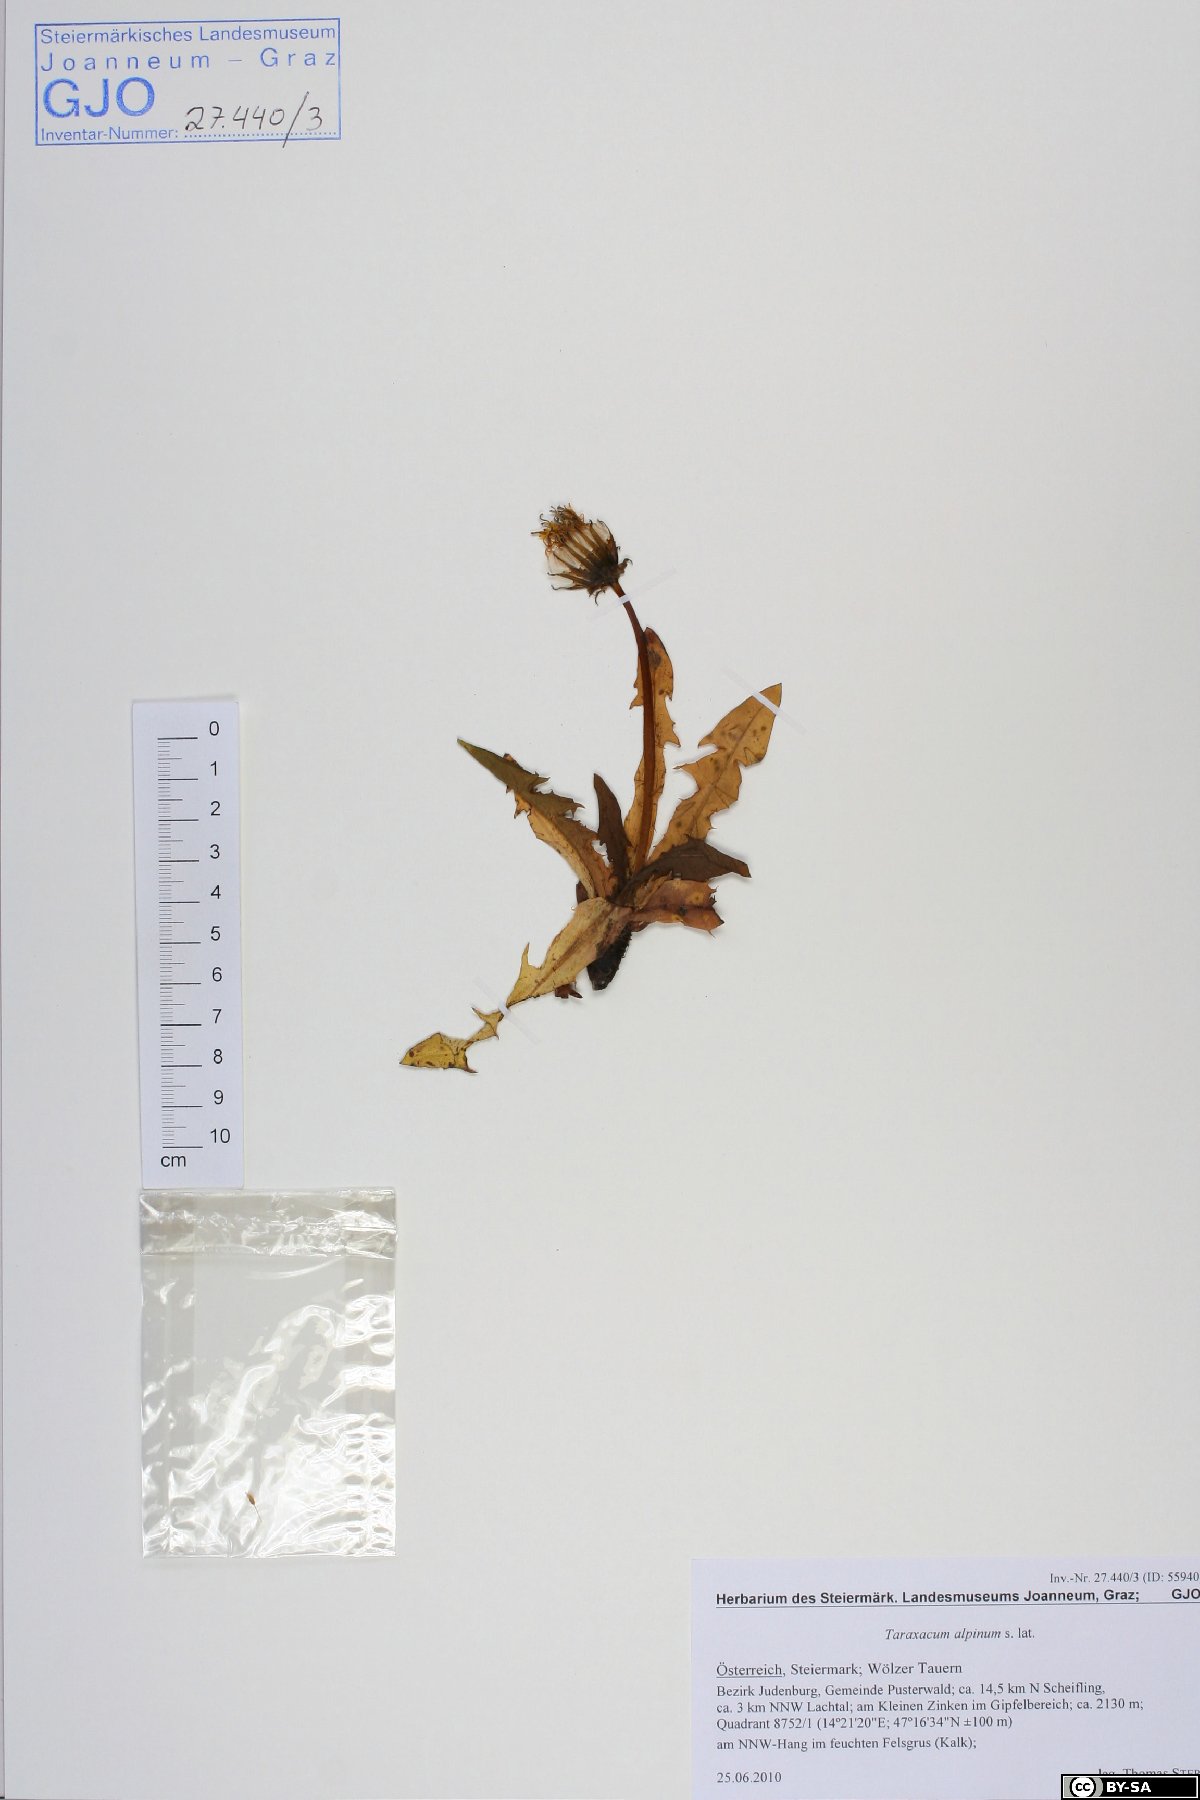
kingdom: Plantae
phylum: Tracheophyta
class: Magnoliopsida
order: Asterales
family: Asteraceae
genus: Taraxacum
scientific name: Taraxacum alpinum
